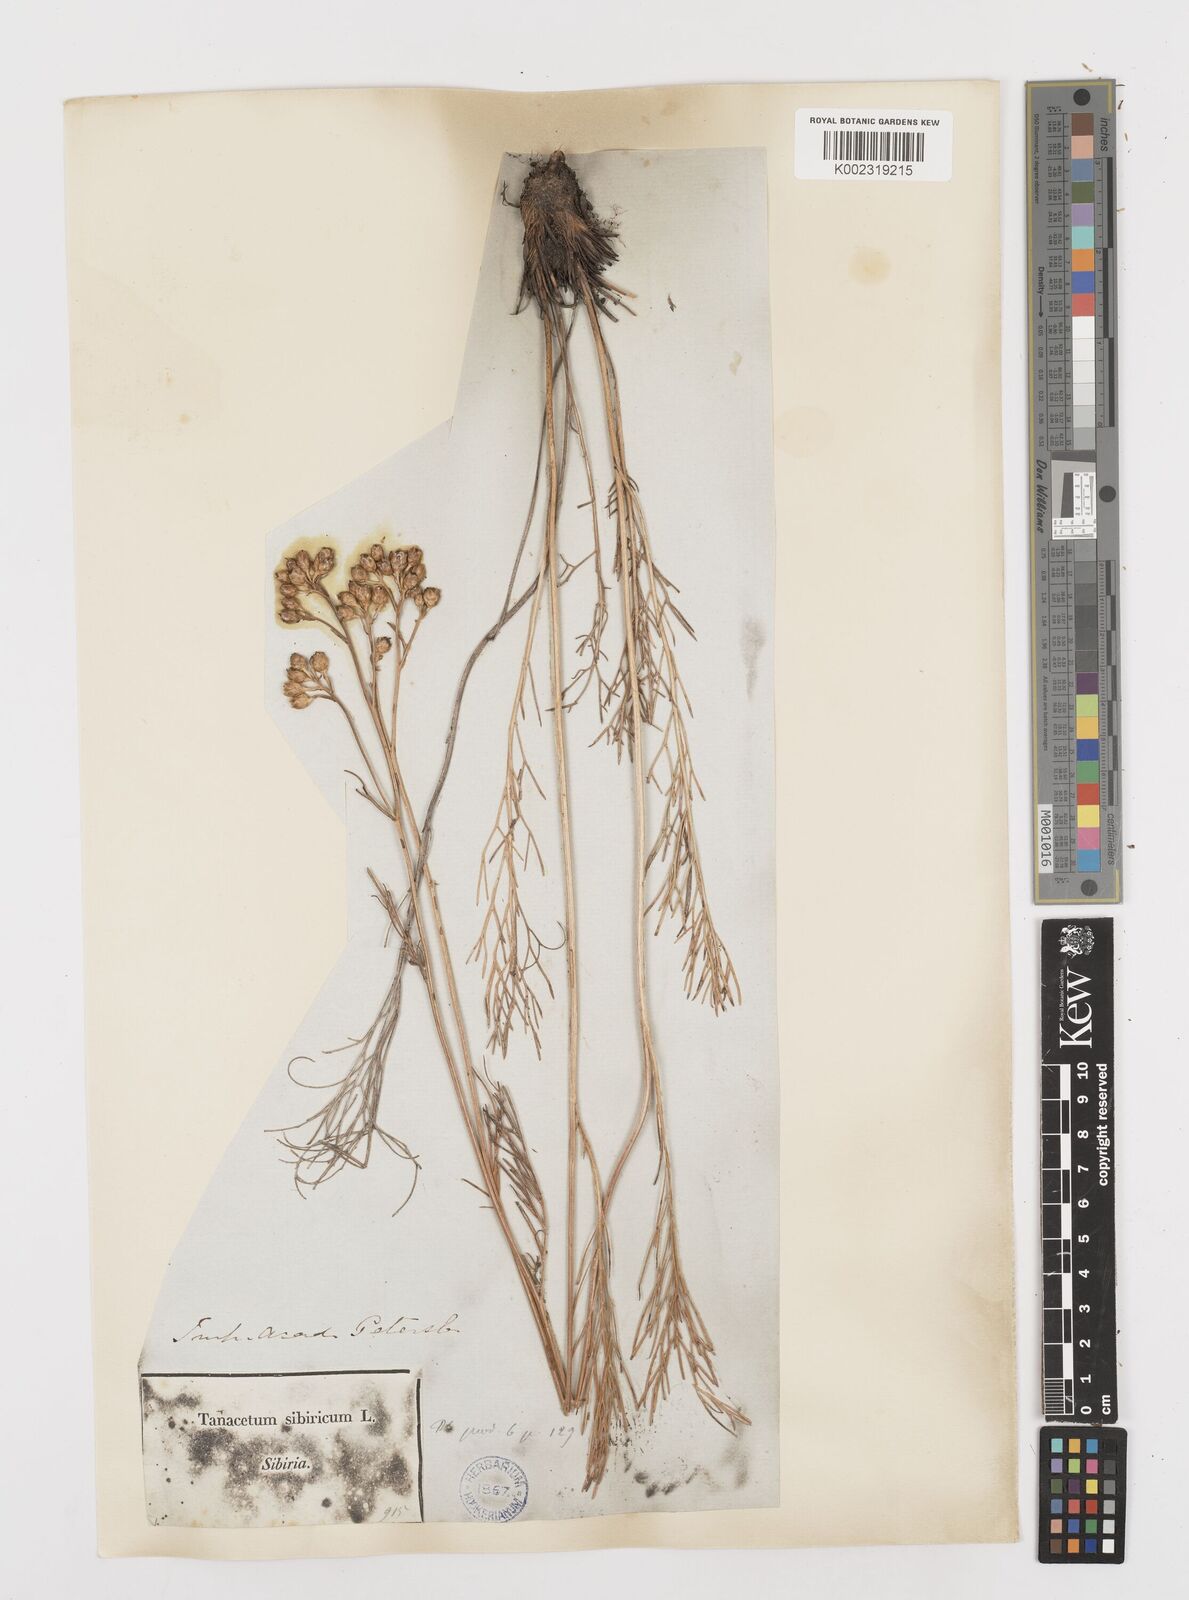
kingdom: Plantae
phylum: Tracheophyta
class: Magnoliopsida
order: Asterales
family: Asteraceae
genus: Filifolium
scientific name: Filifolium sibiricum
